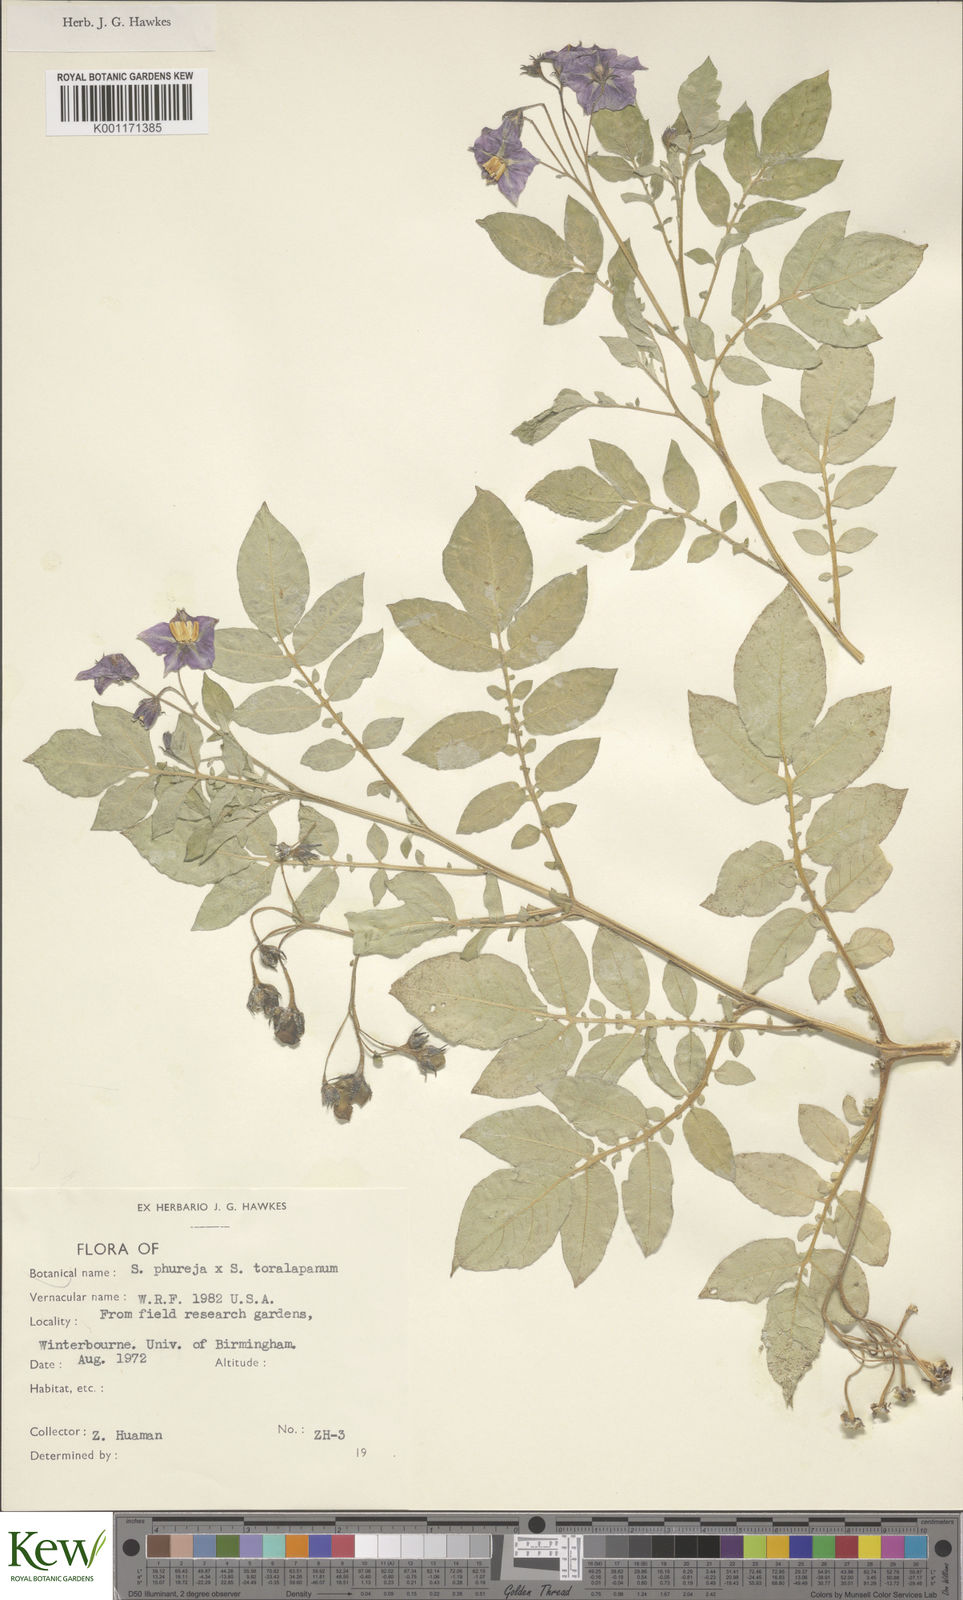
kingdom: Plantae
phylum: Tracheophyta
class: Magnoliopsida
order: Solanales
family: Solanaceae
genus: Solanum
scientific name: Solanum tuberosum
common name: Potato
